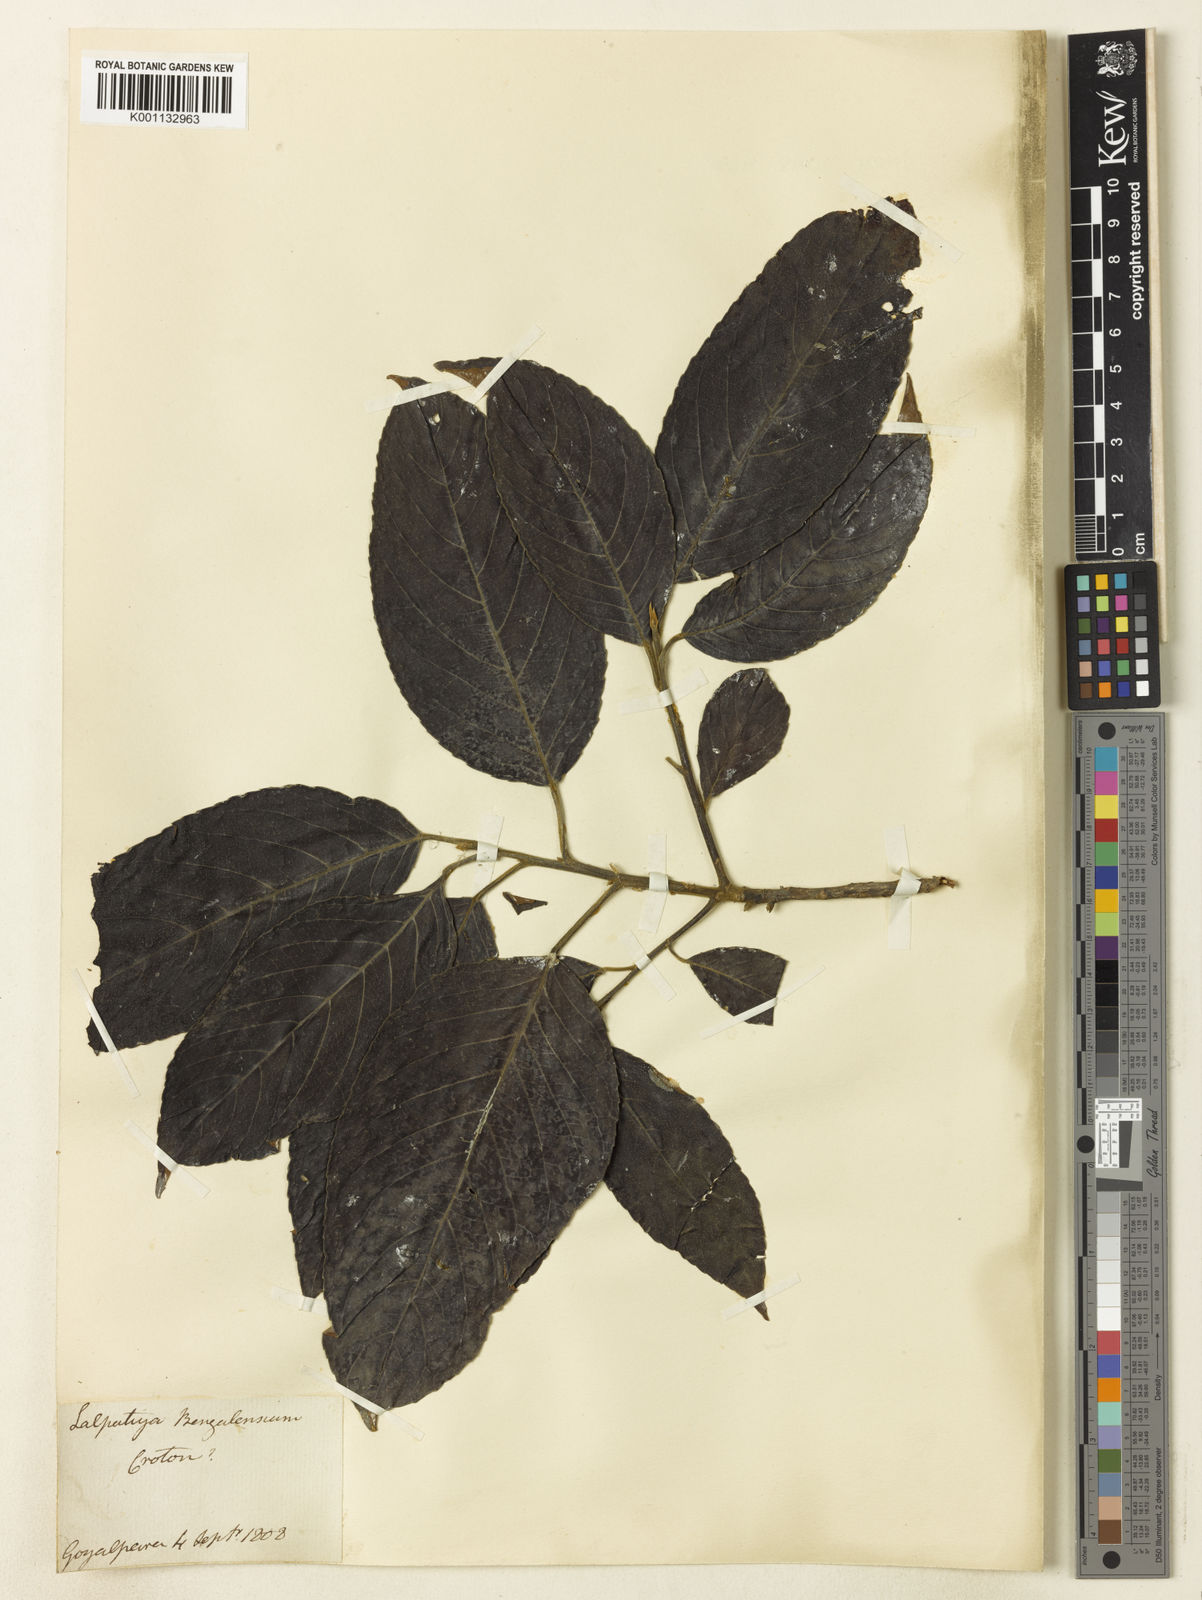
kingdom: Plantae
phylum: Tracheophyta
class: Magnoliopsida
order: Malpighiales
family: Euphorbiaceae
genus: Croton
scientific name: Croton
